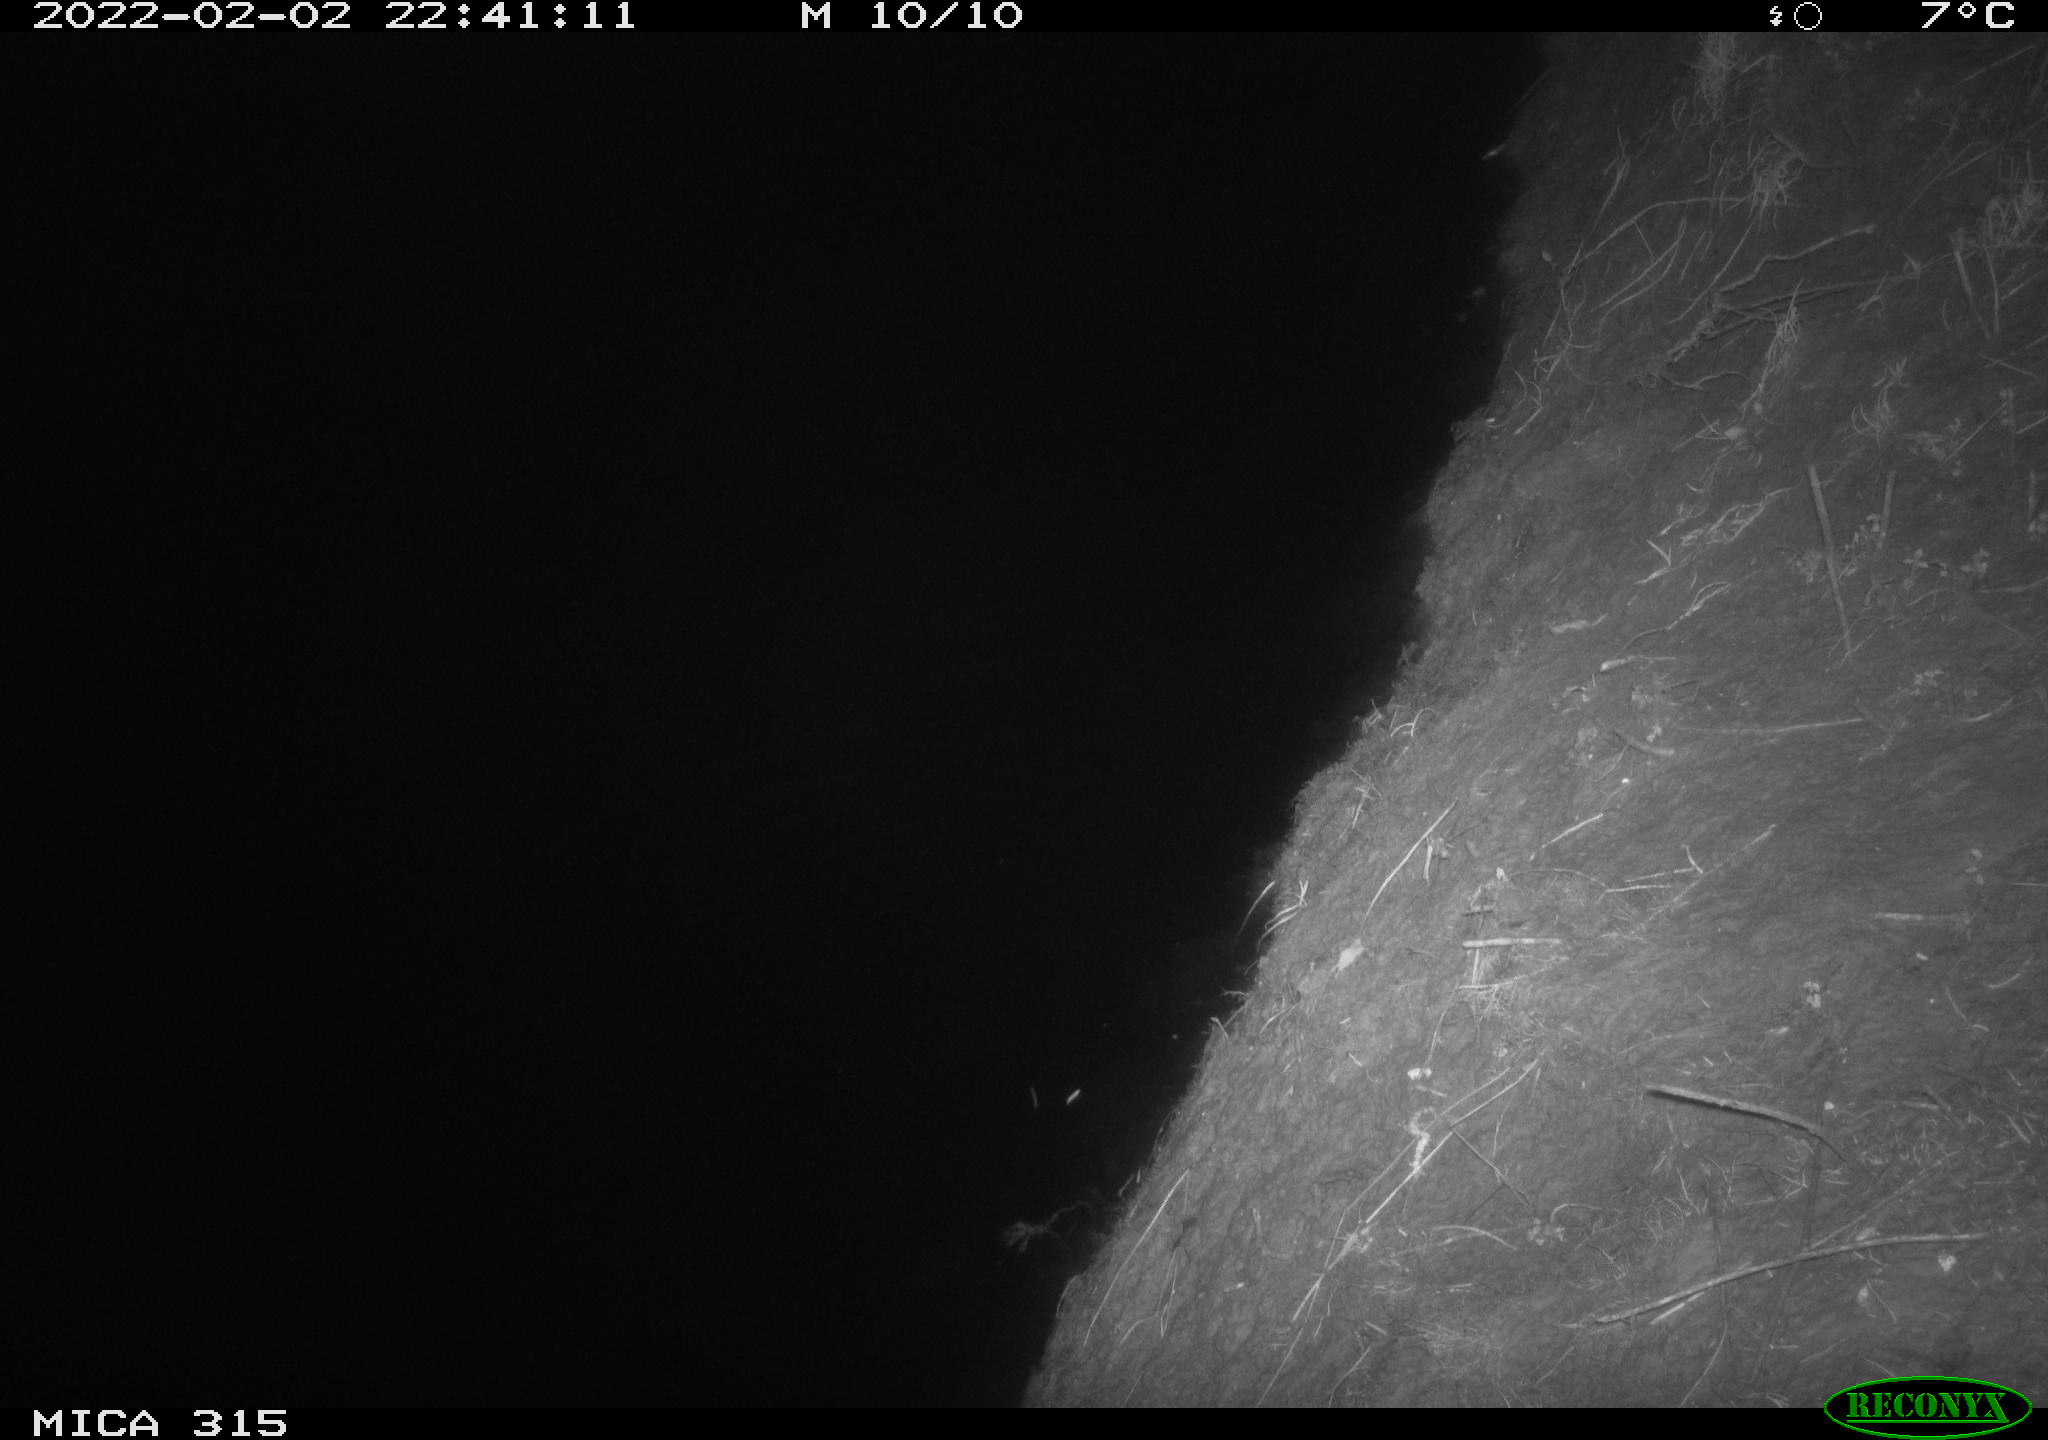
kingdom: Animalia
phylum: Chordata
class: Mammalia
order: Rodentia
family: Muridae
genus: Rattus
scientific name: Rattus norvegicus
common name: Brown rat
